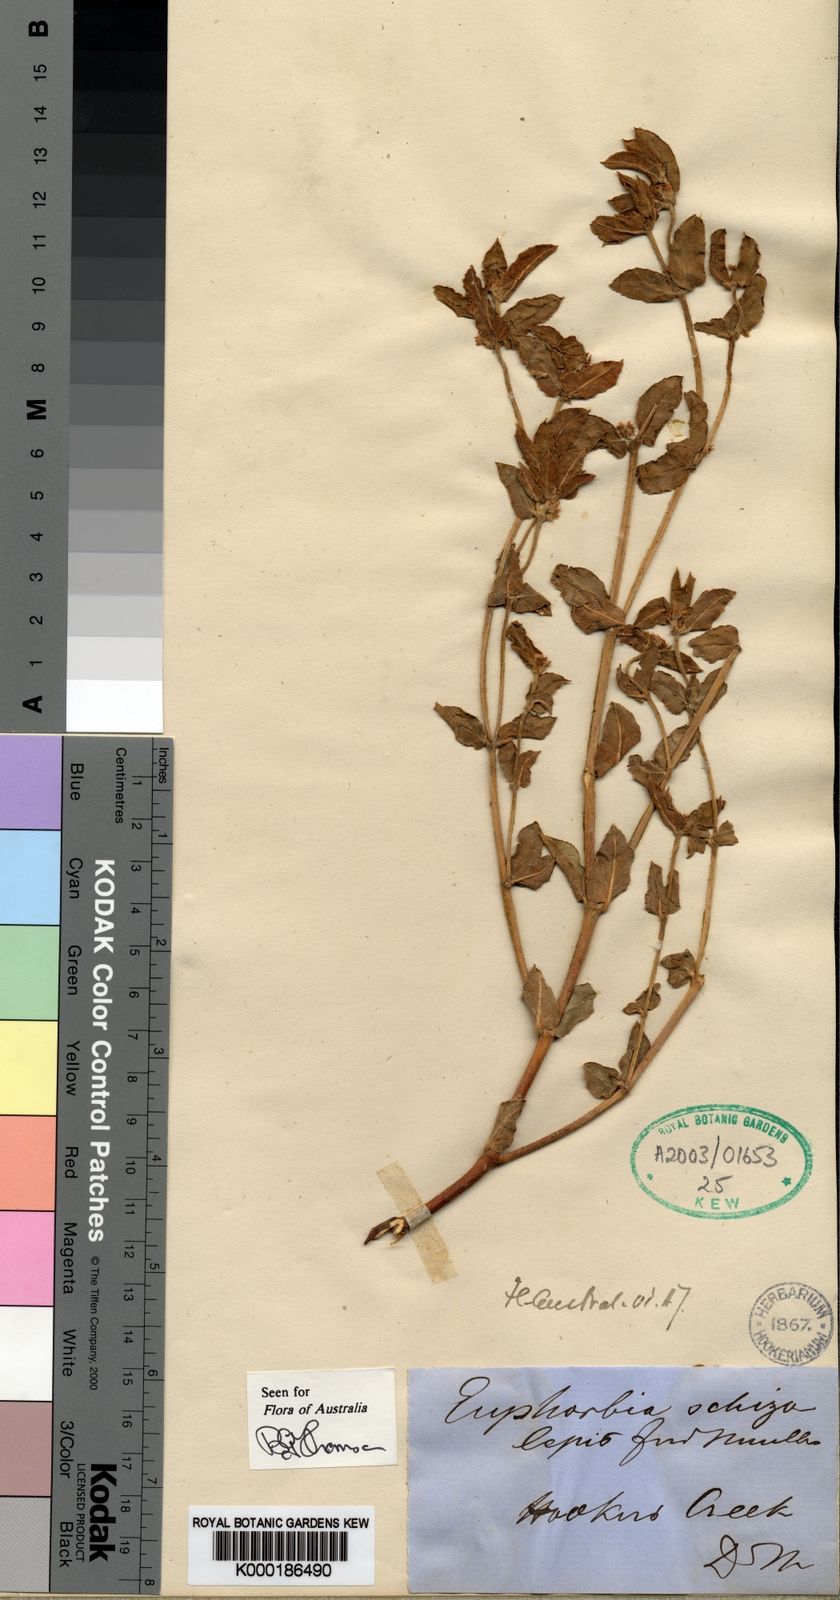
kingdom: Plantae
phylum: Tracheophyta
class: Magnoliopsida
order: Malpighiales
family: Euphorbiaceae
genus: Euphorbia
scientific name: Euphorbia schizolepis
